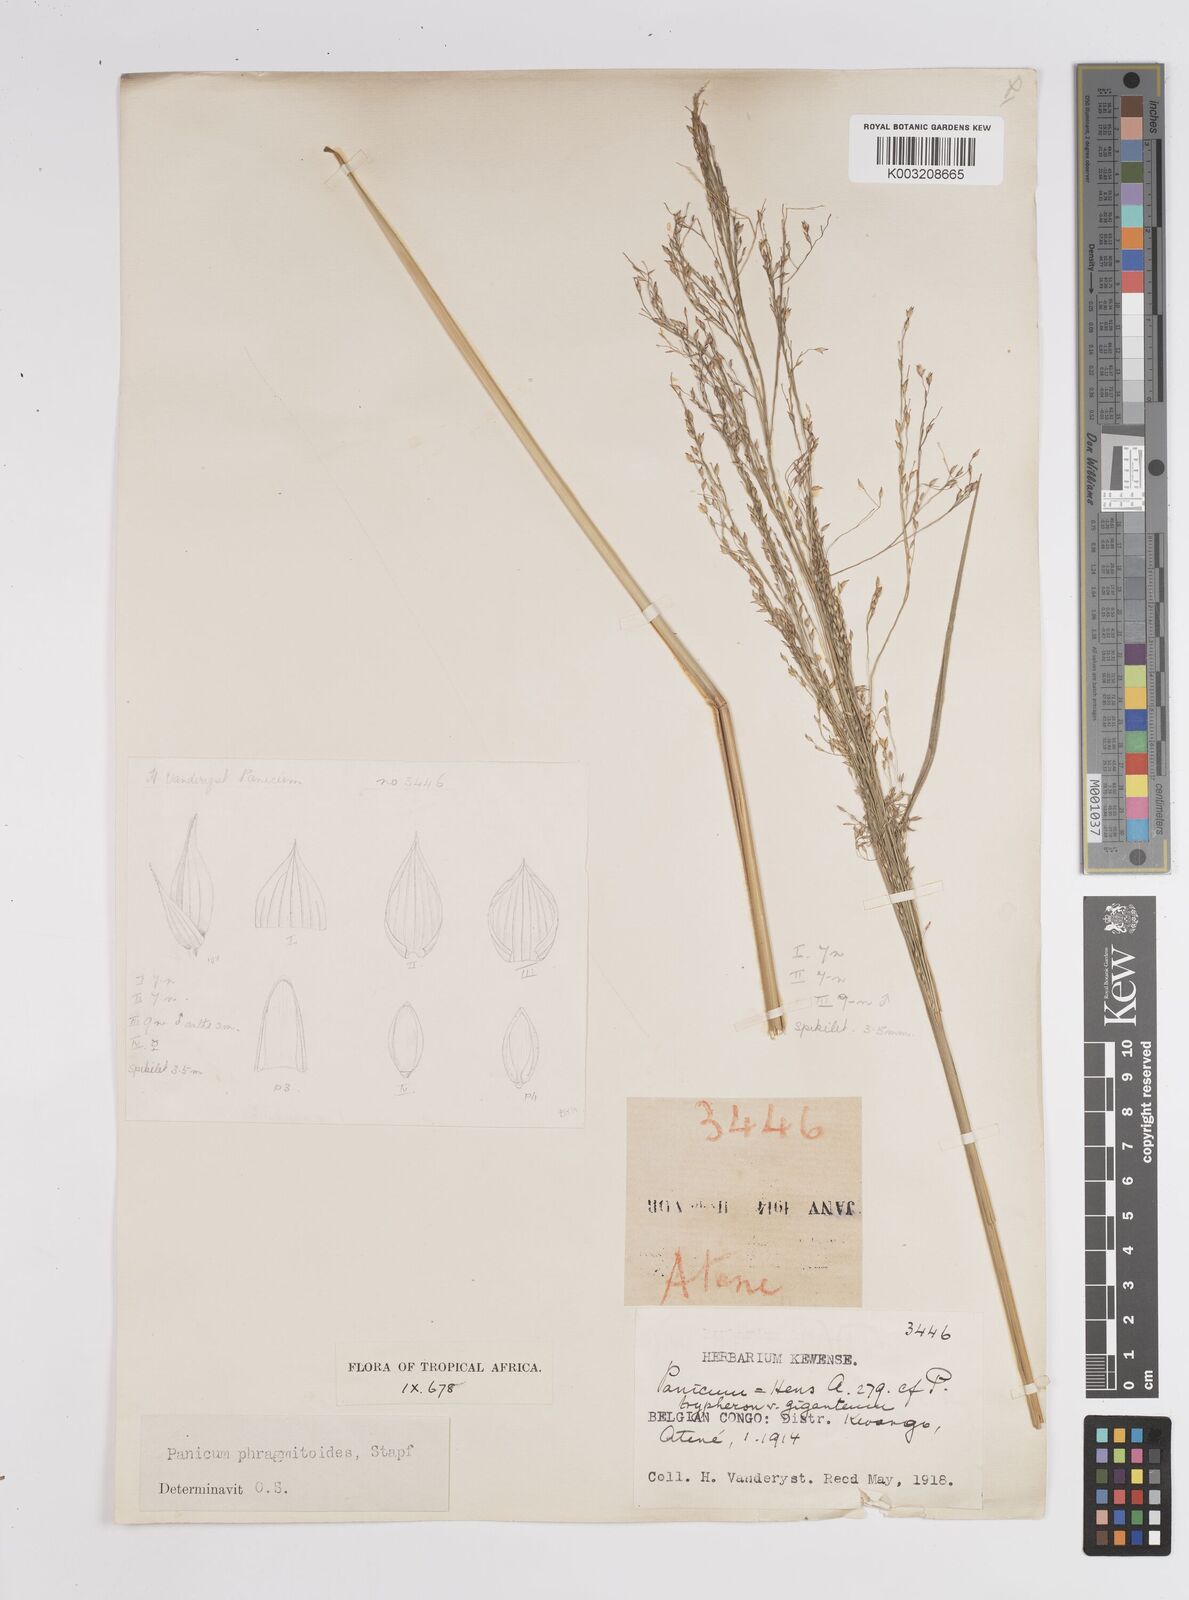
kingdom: Plantae
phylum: Tracheophyta
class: Liliopsida
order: Poales
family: Poaceae
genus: Panicum
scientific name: Panicum phragmitoides
